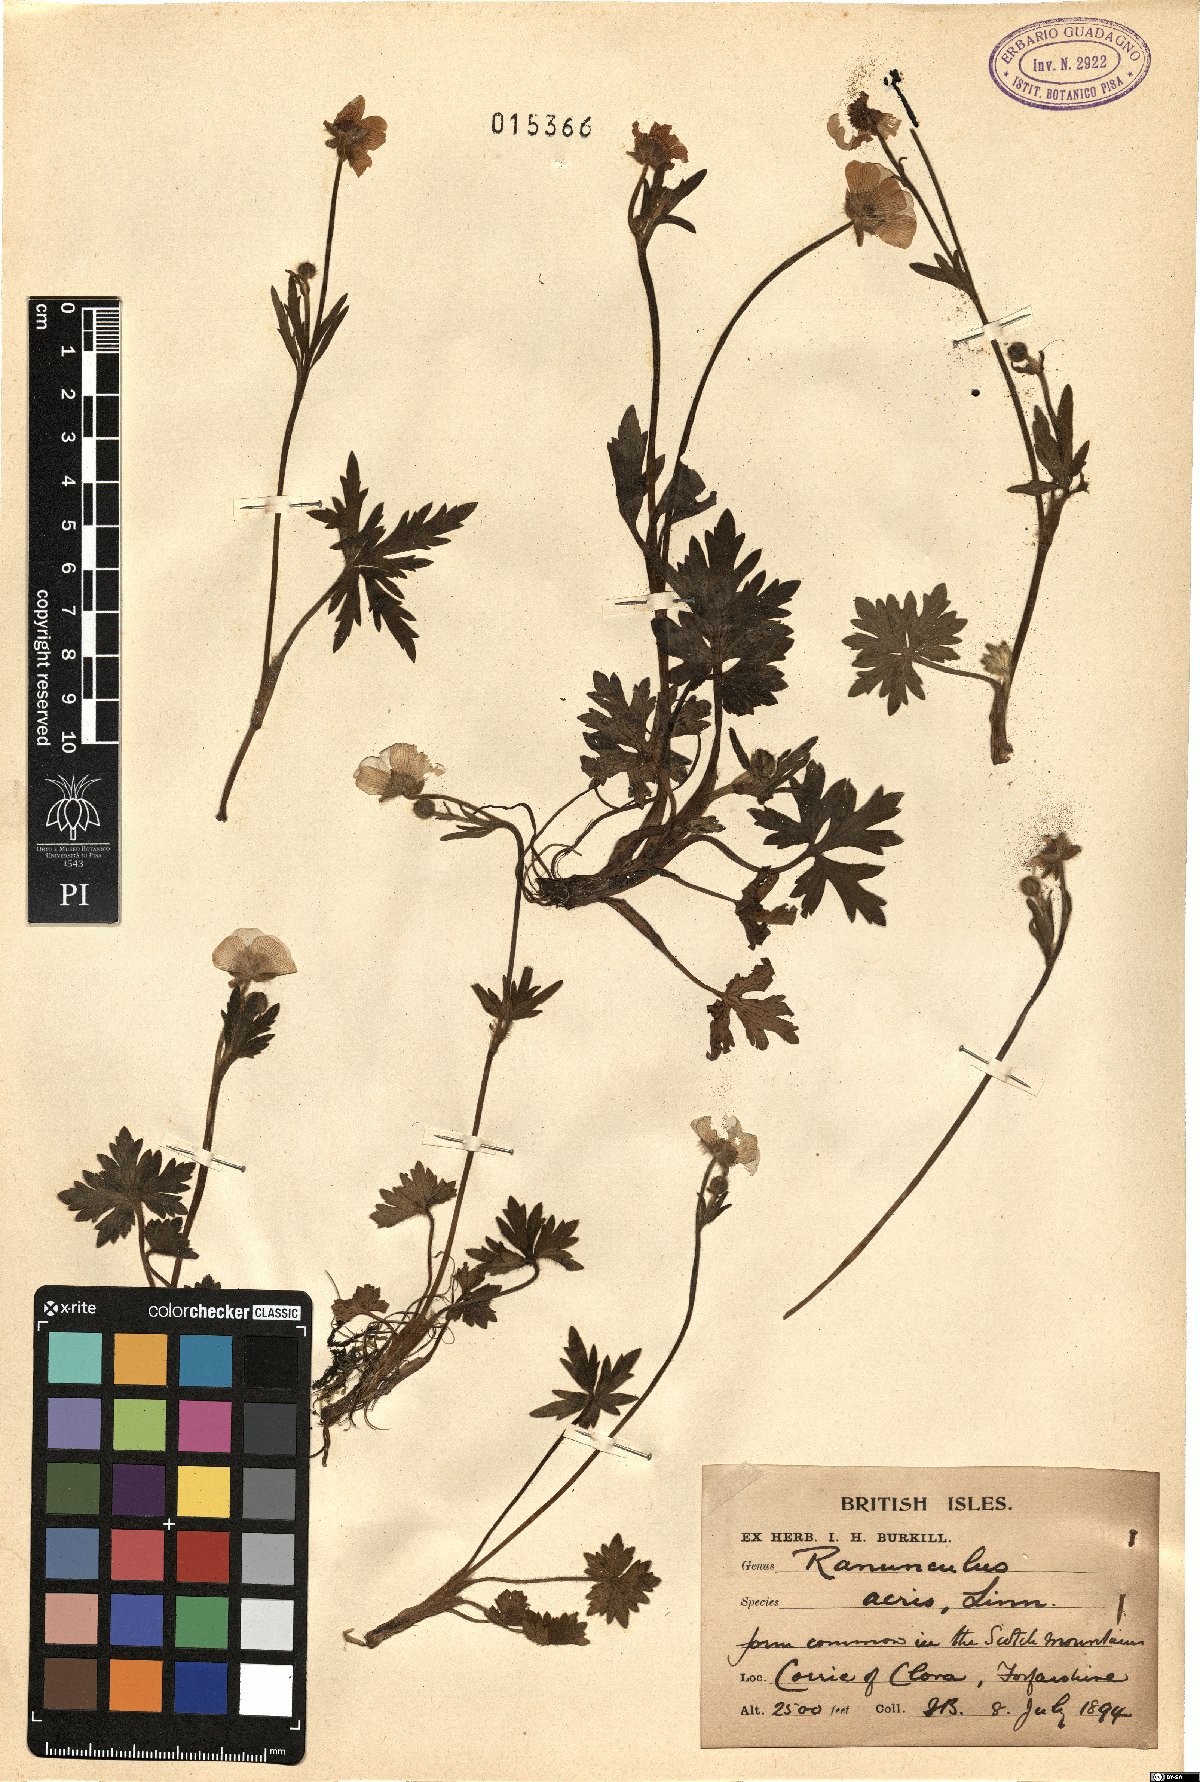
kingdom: Plantae
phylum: Tracheophyta
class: Magnoliopsida
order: Ranunculales
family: Ranunculaceae
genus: Ranunculus
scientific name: Ranunculus acris
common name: Meadow buttercup
